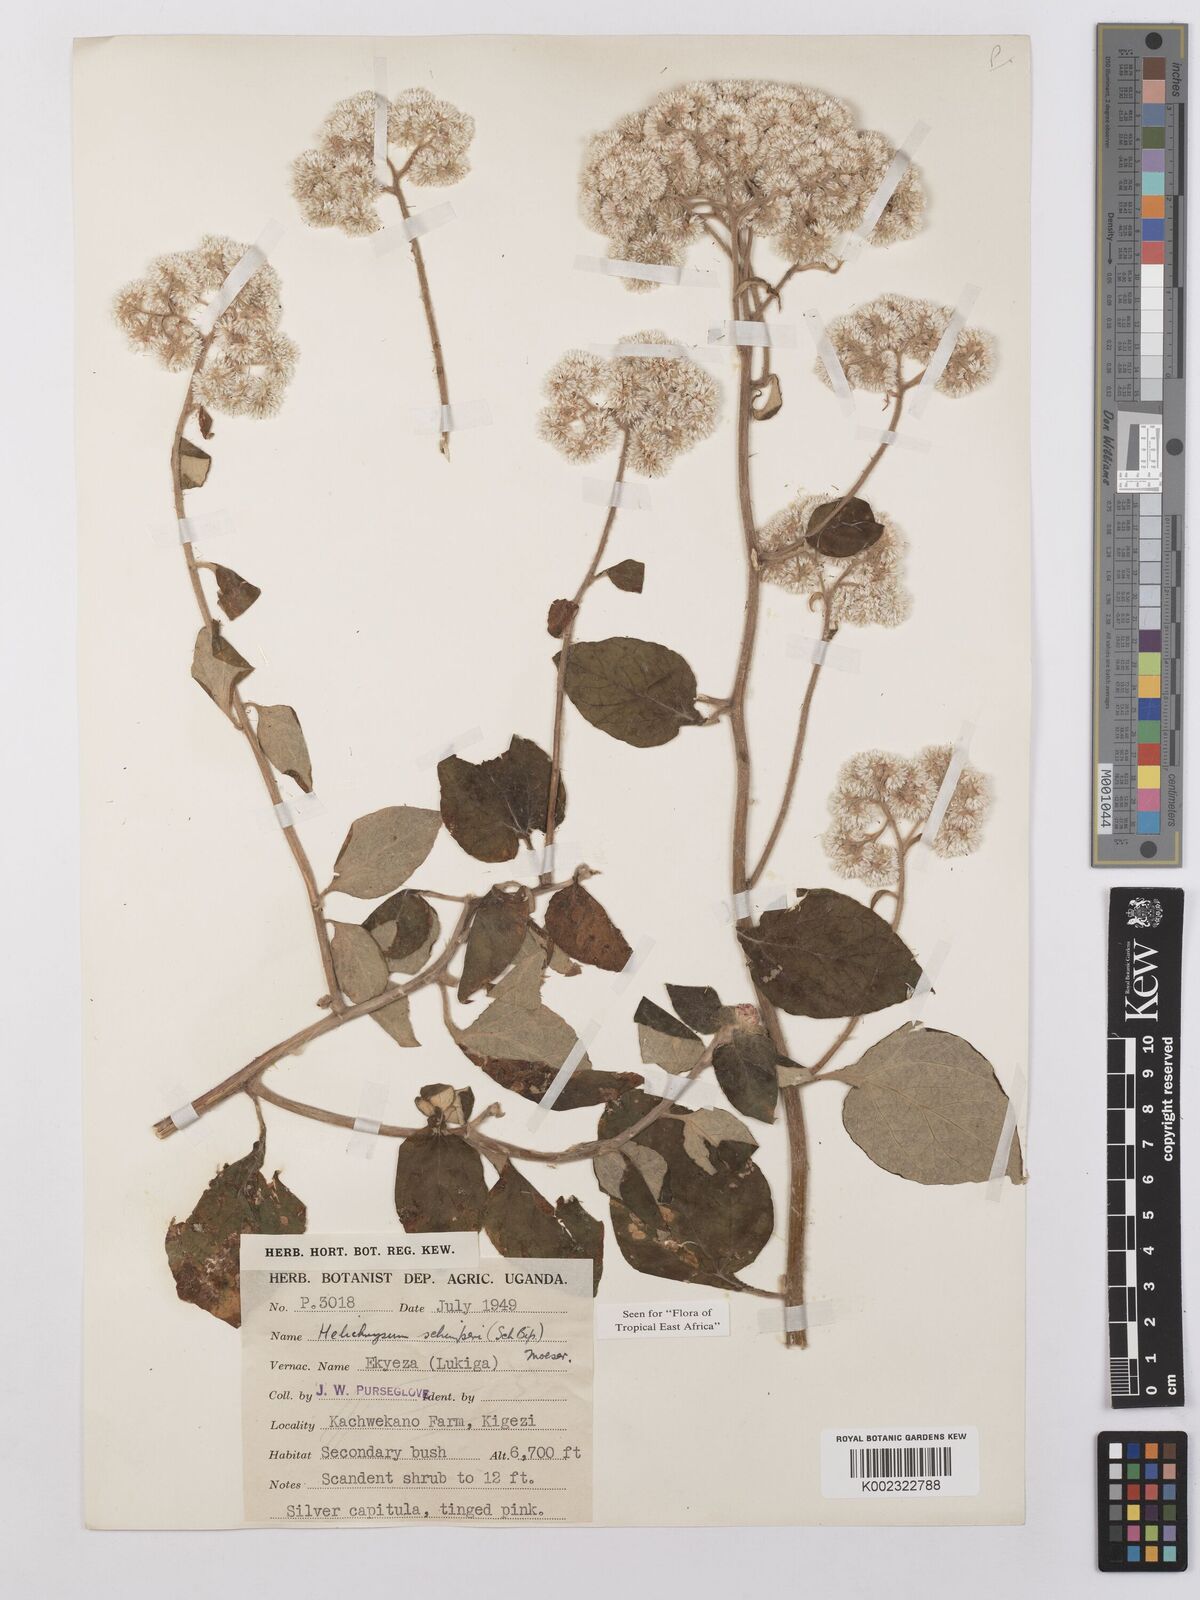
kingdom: Plantae
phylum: Tracheophyta
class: Magnoliopsida
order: Asterales
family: Asteraceae
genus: Helichrysum
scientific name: Helichrysum schimperi
